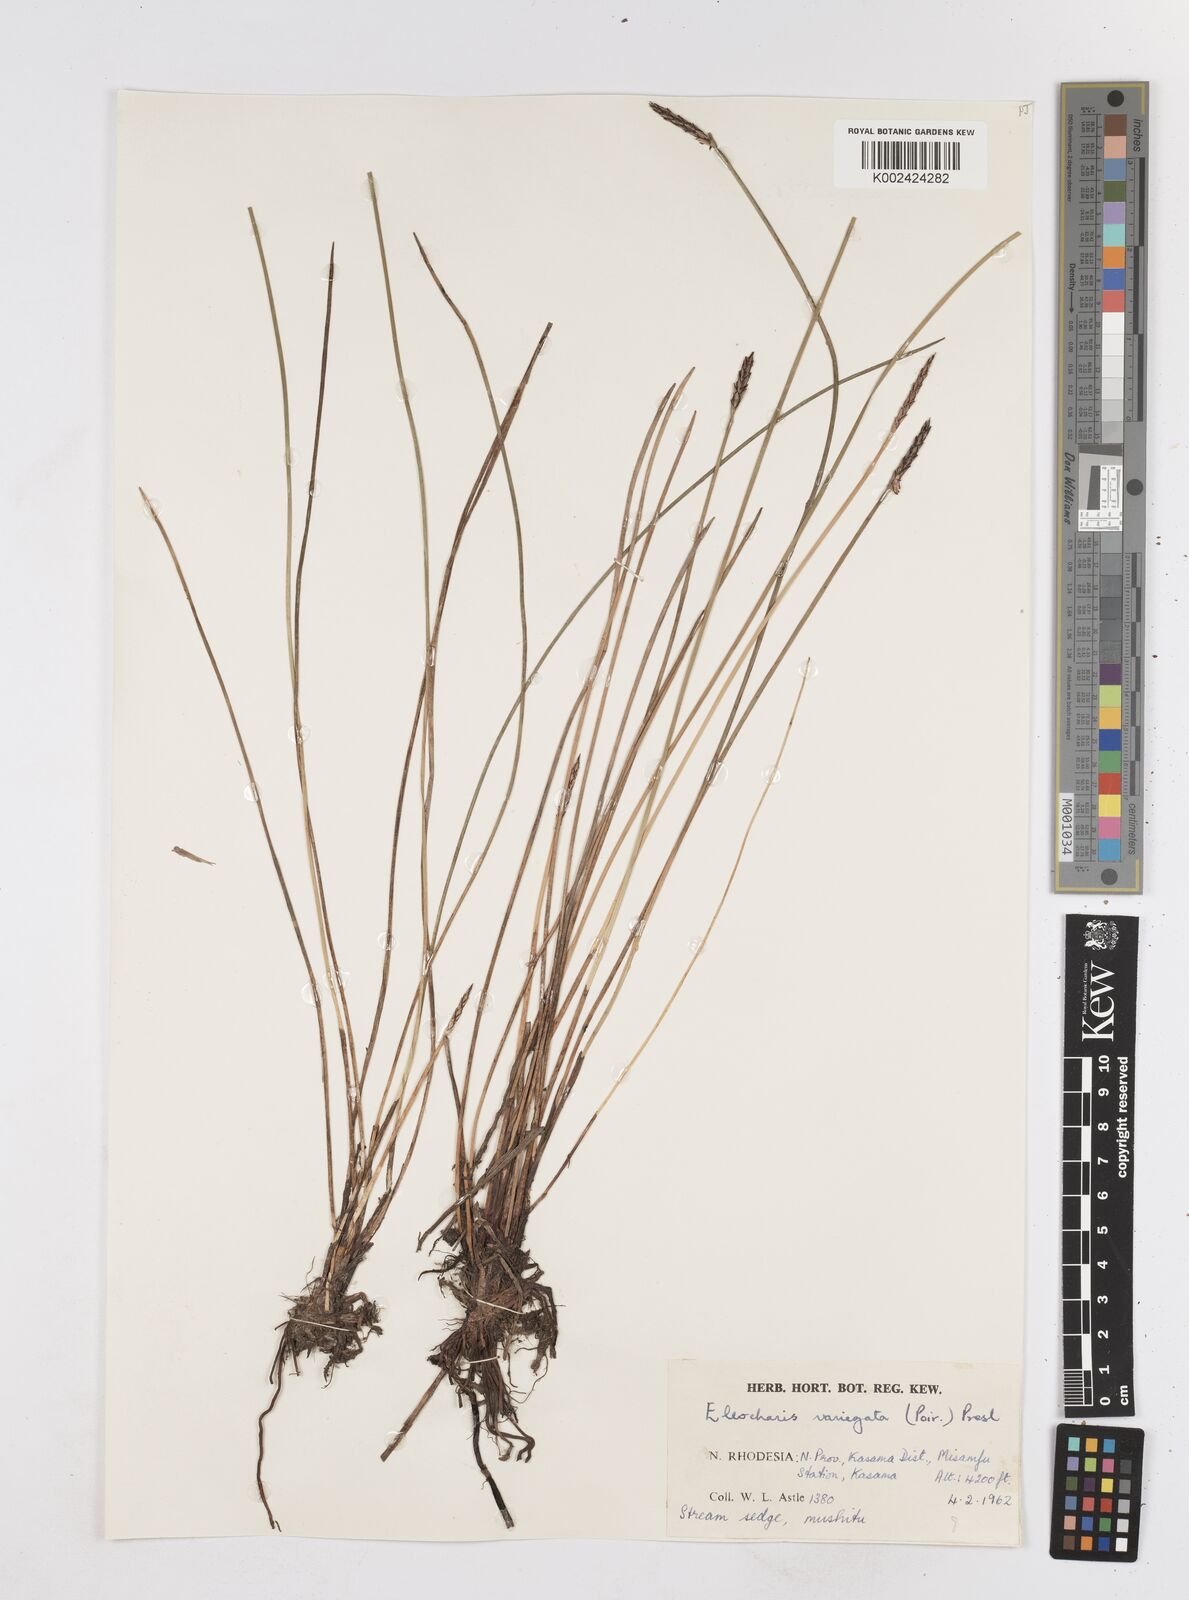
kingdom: Plantae
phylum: Tracheophyta
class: Liliopsida
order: Poales
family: Cyperaceae
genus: Eleocharis
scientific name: Eleocharis variegata
